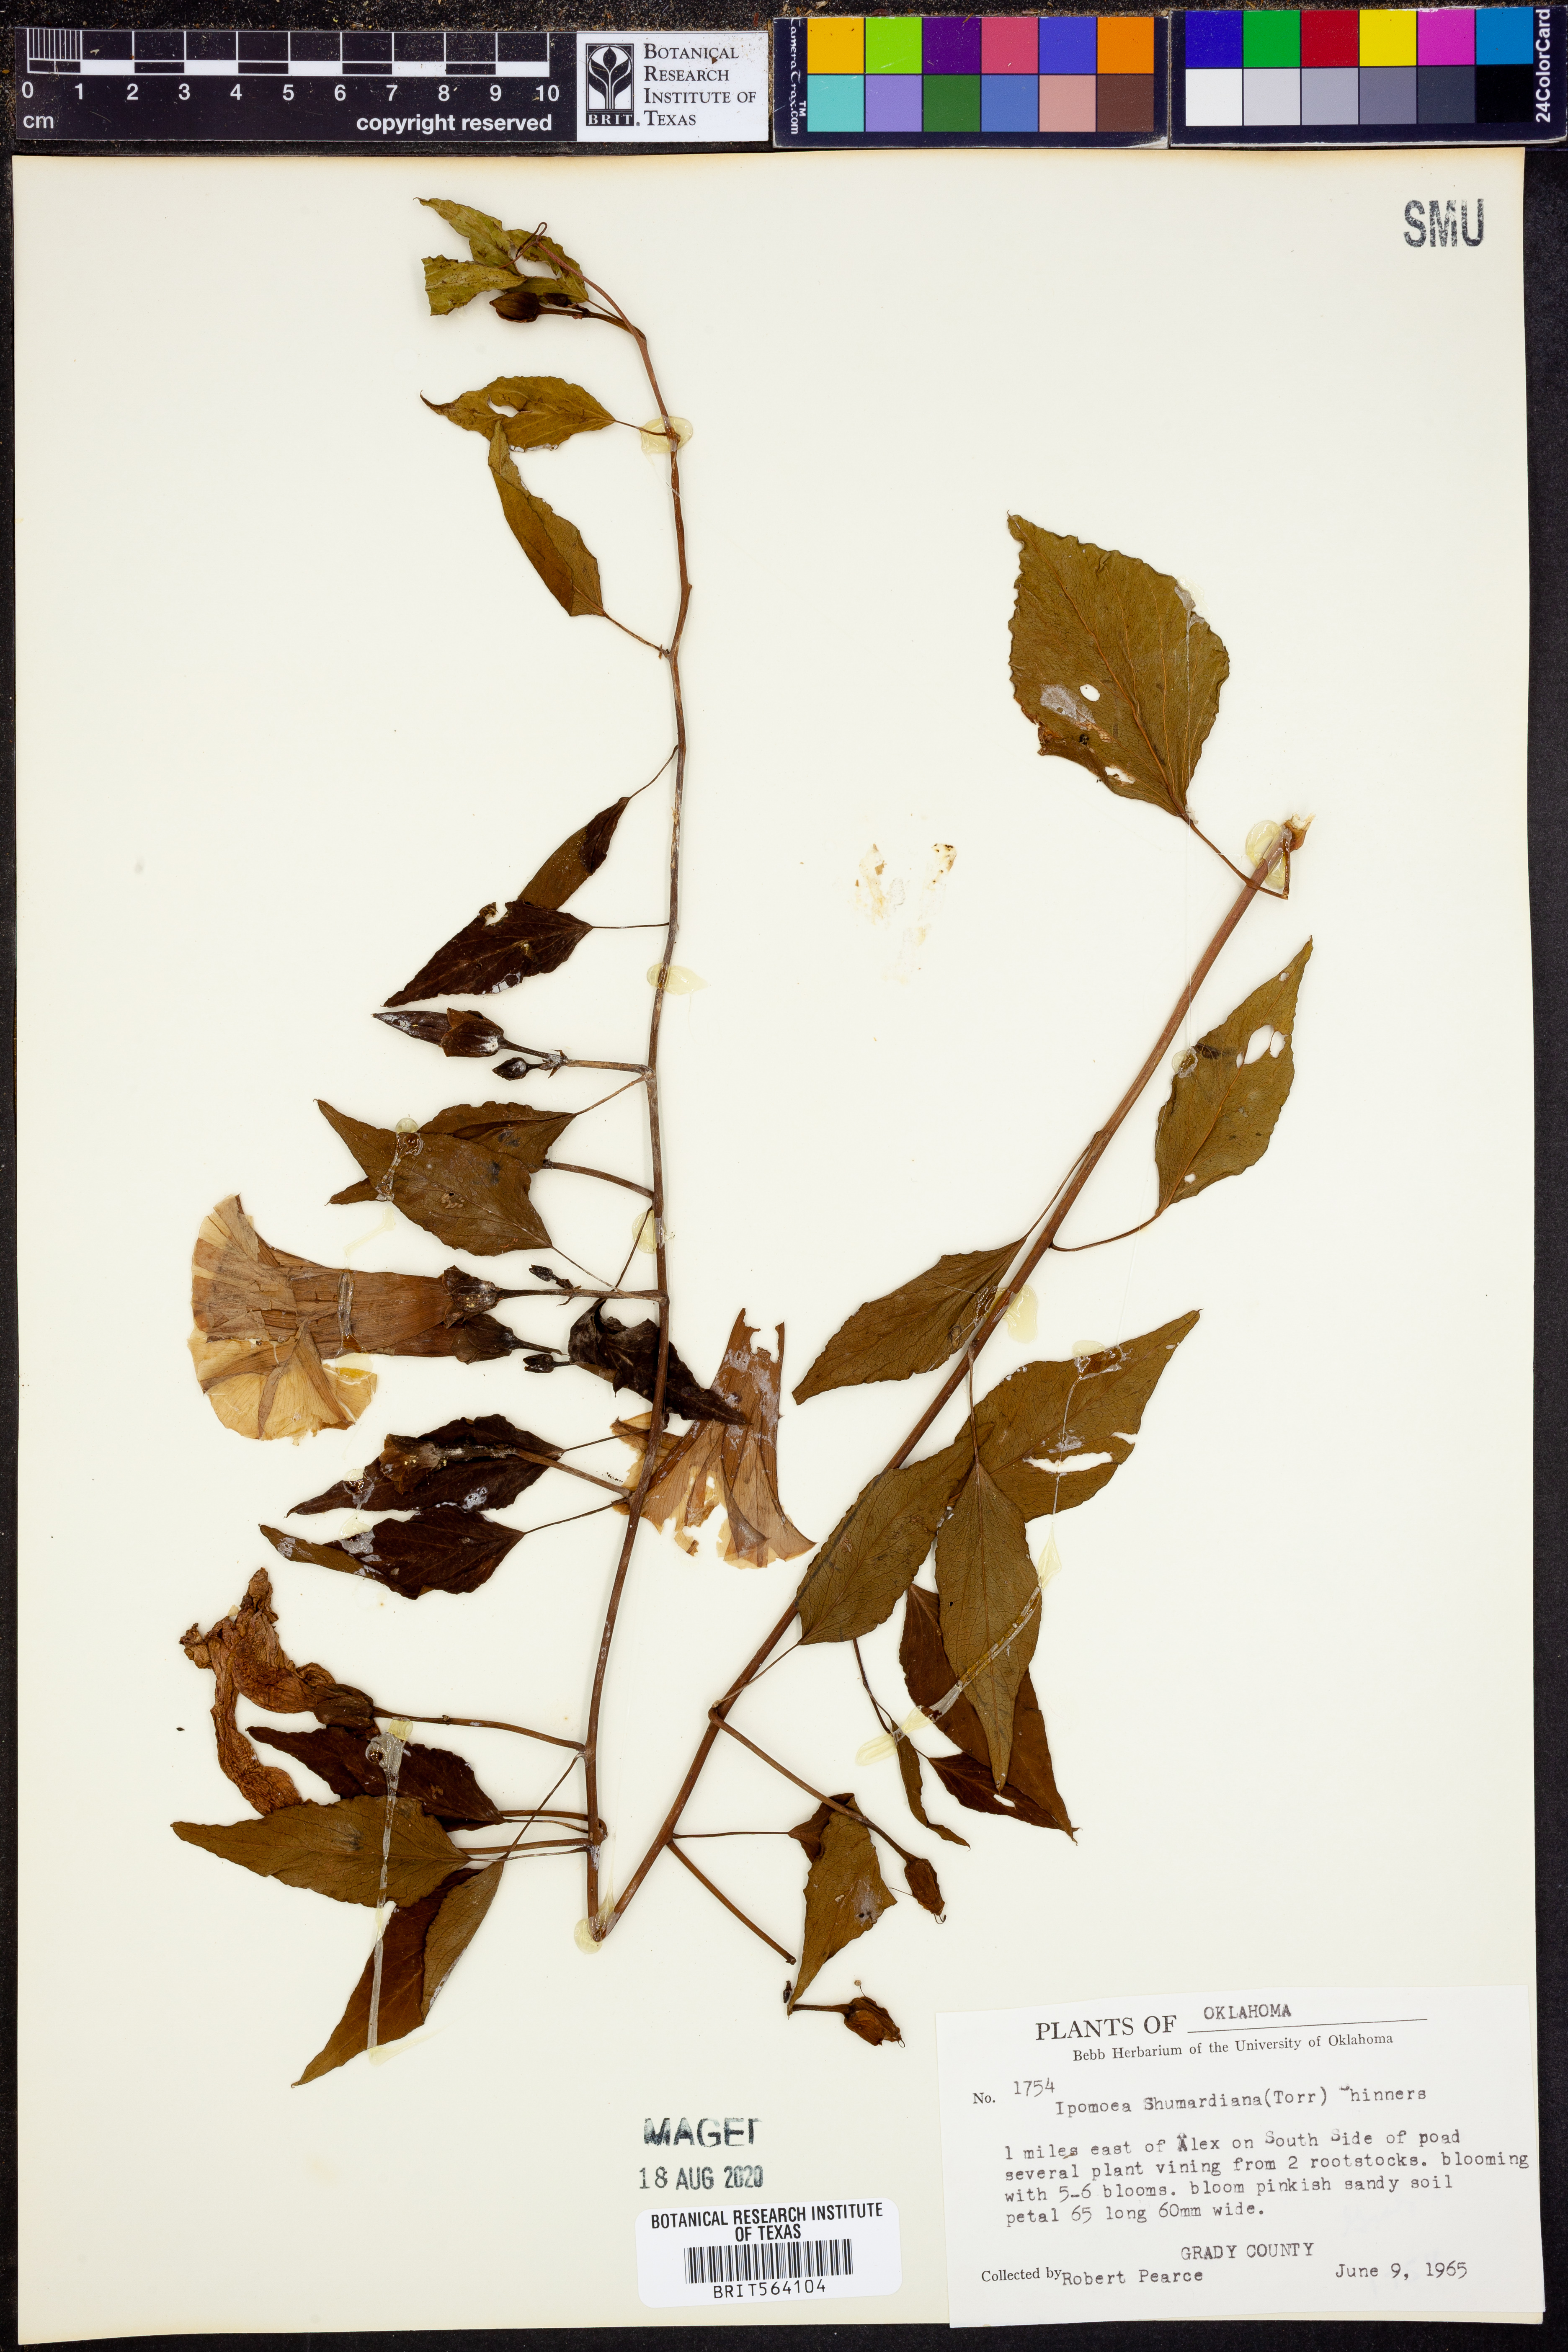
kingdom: Plantae
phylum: Tracheophyta
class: Magnoliopsida
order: Solanales
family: Convolvulaceae
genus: Ipomoea
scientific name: Ipomoea shumardiana
